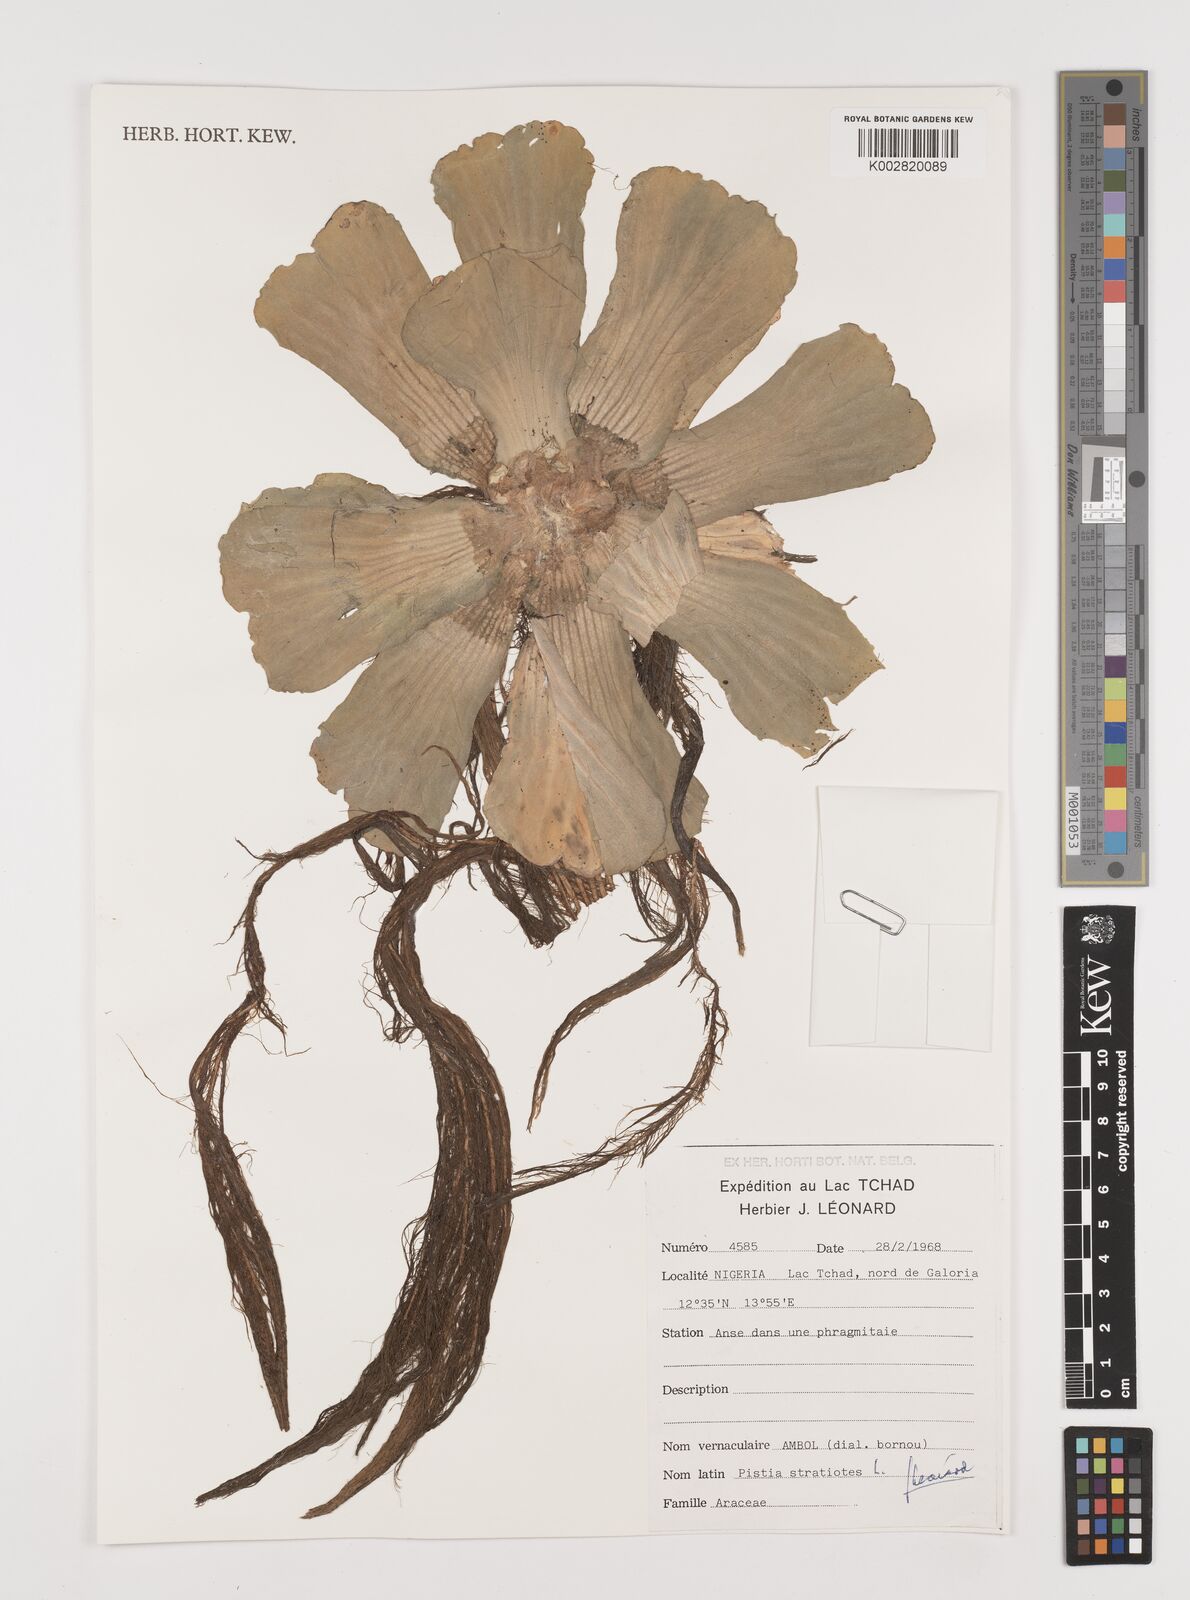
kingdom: Plantae
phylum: Tracheophyta
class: Liliopsida
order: Alismatales
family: Araceae
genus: Pistia
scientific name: Pistia stratiotes
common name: Water lettuce
